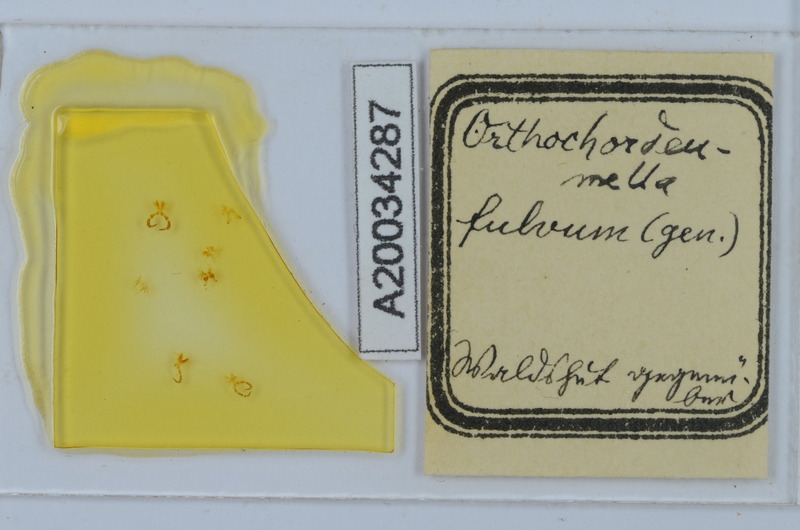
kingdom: Animalia
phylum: Arthropoda
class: Diplopoda
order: Chordeumatida
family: Chordeumatidae
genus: Orthochordeumella
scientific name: Orthochordeumella fulva
